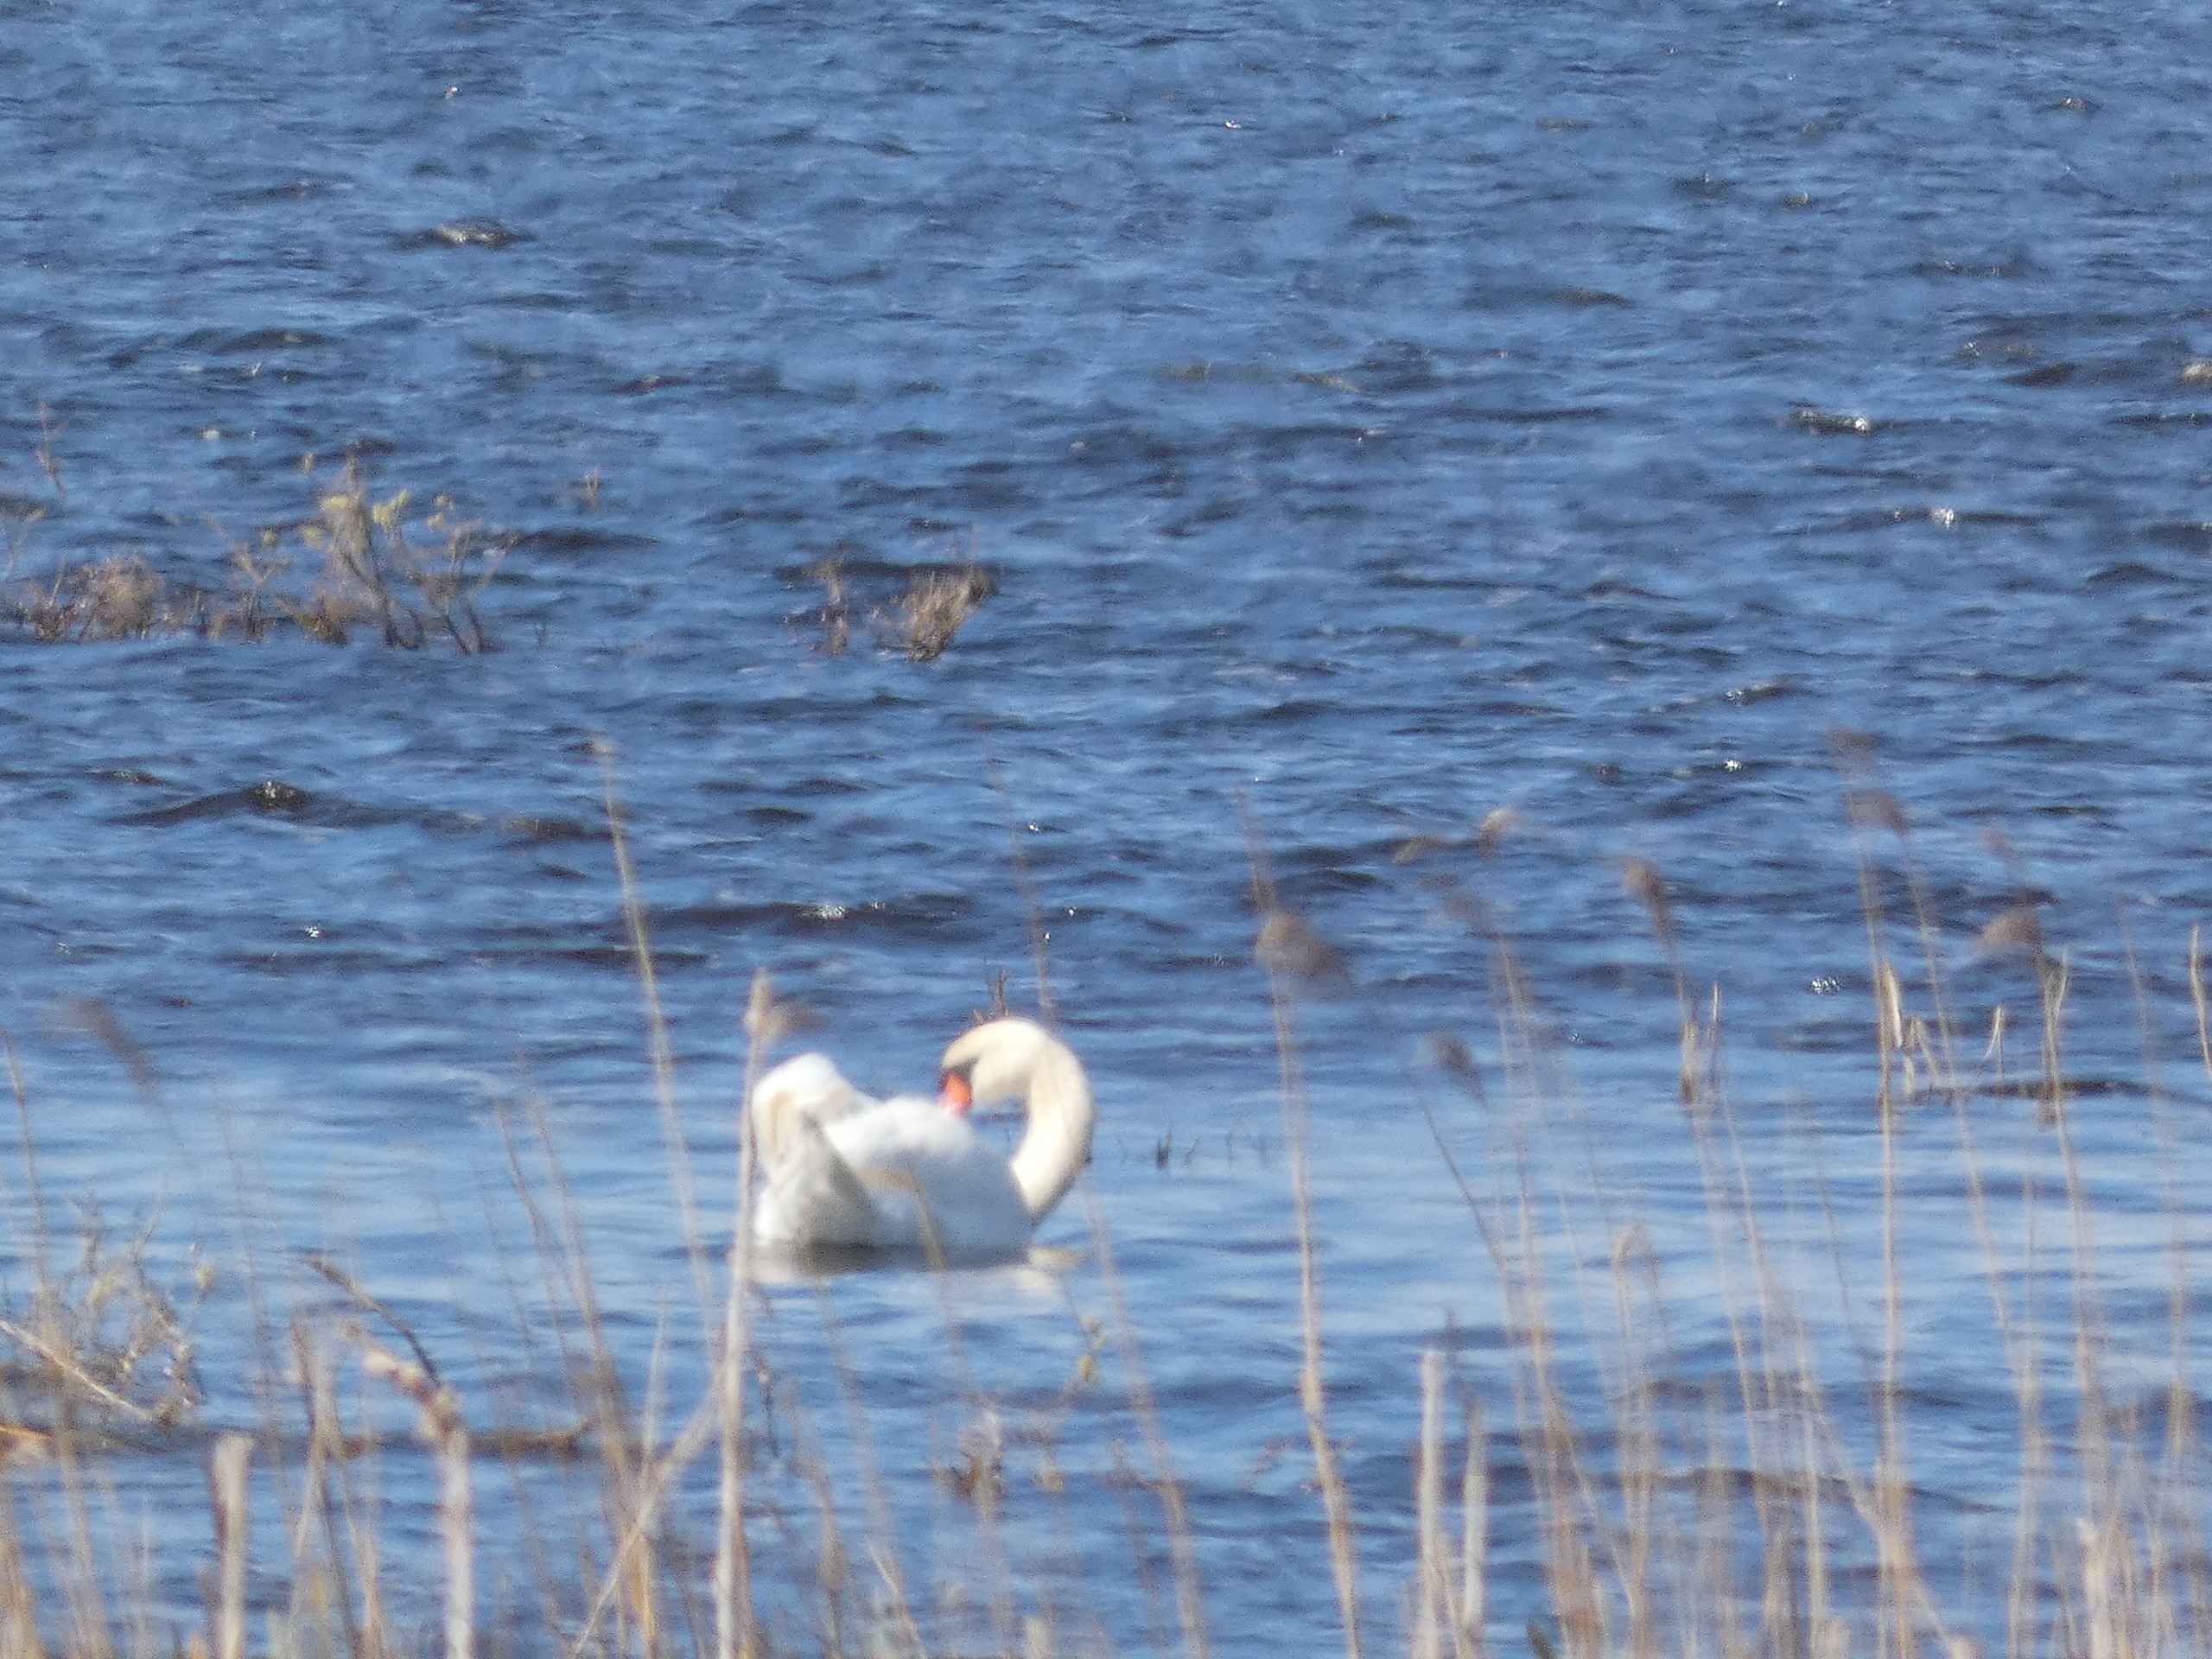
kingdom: Animalia
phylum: Chordata
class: Aves
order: Anseriformes
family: Anatidae
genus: Cygnus
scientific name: Cygnus olor
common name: Knopsvane
